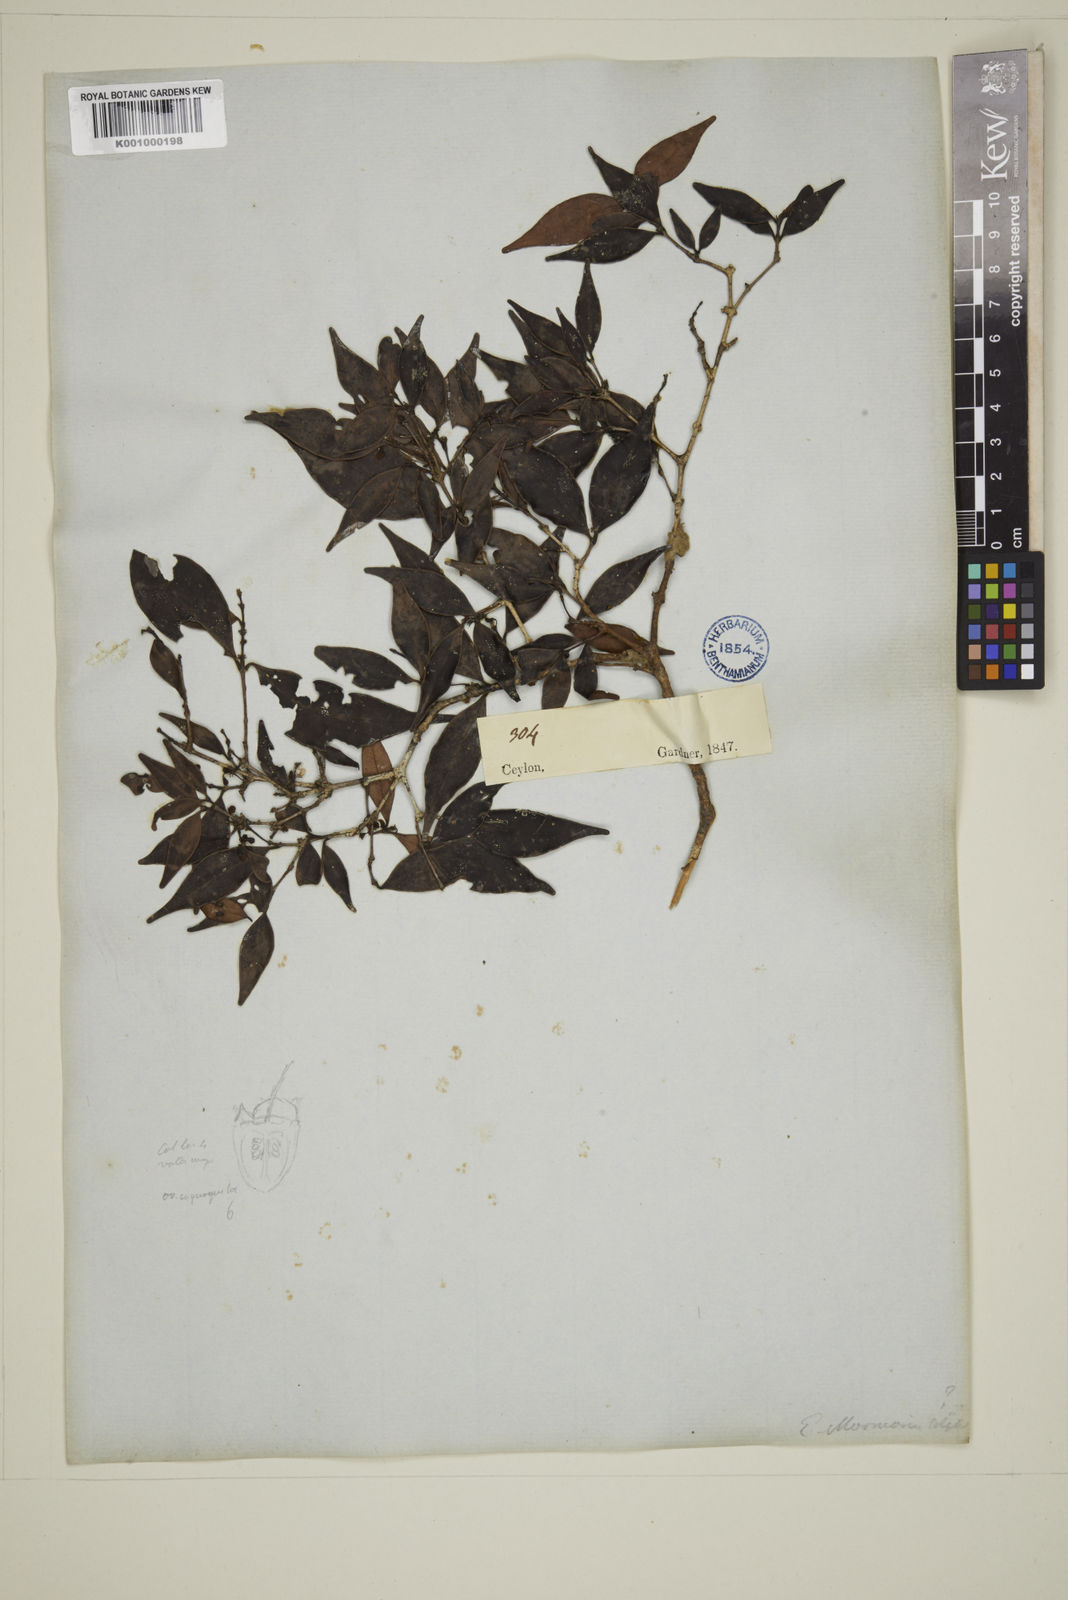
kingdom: Plantae
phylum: Tracheophyta
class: Magnoliopsida
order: Myrtales
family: Myrtaceae
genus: Eugenia
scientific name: Eugenia thwaitesii
